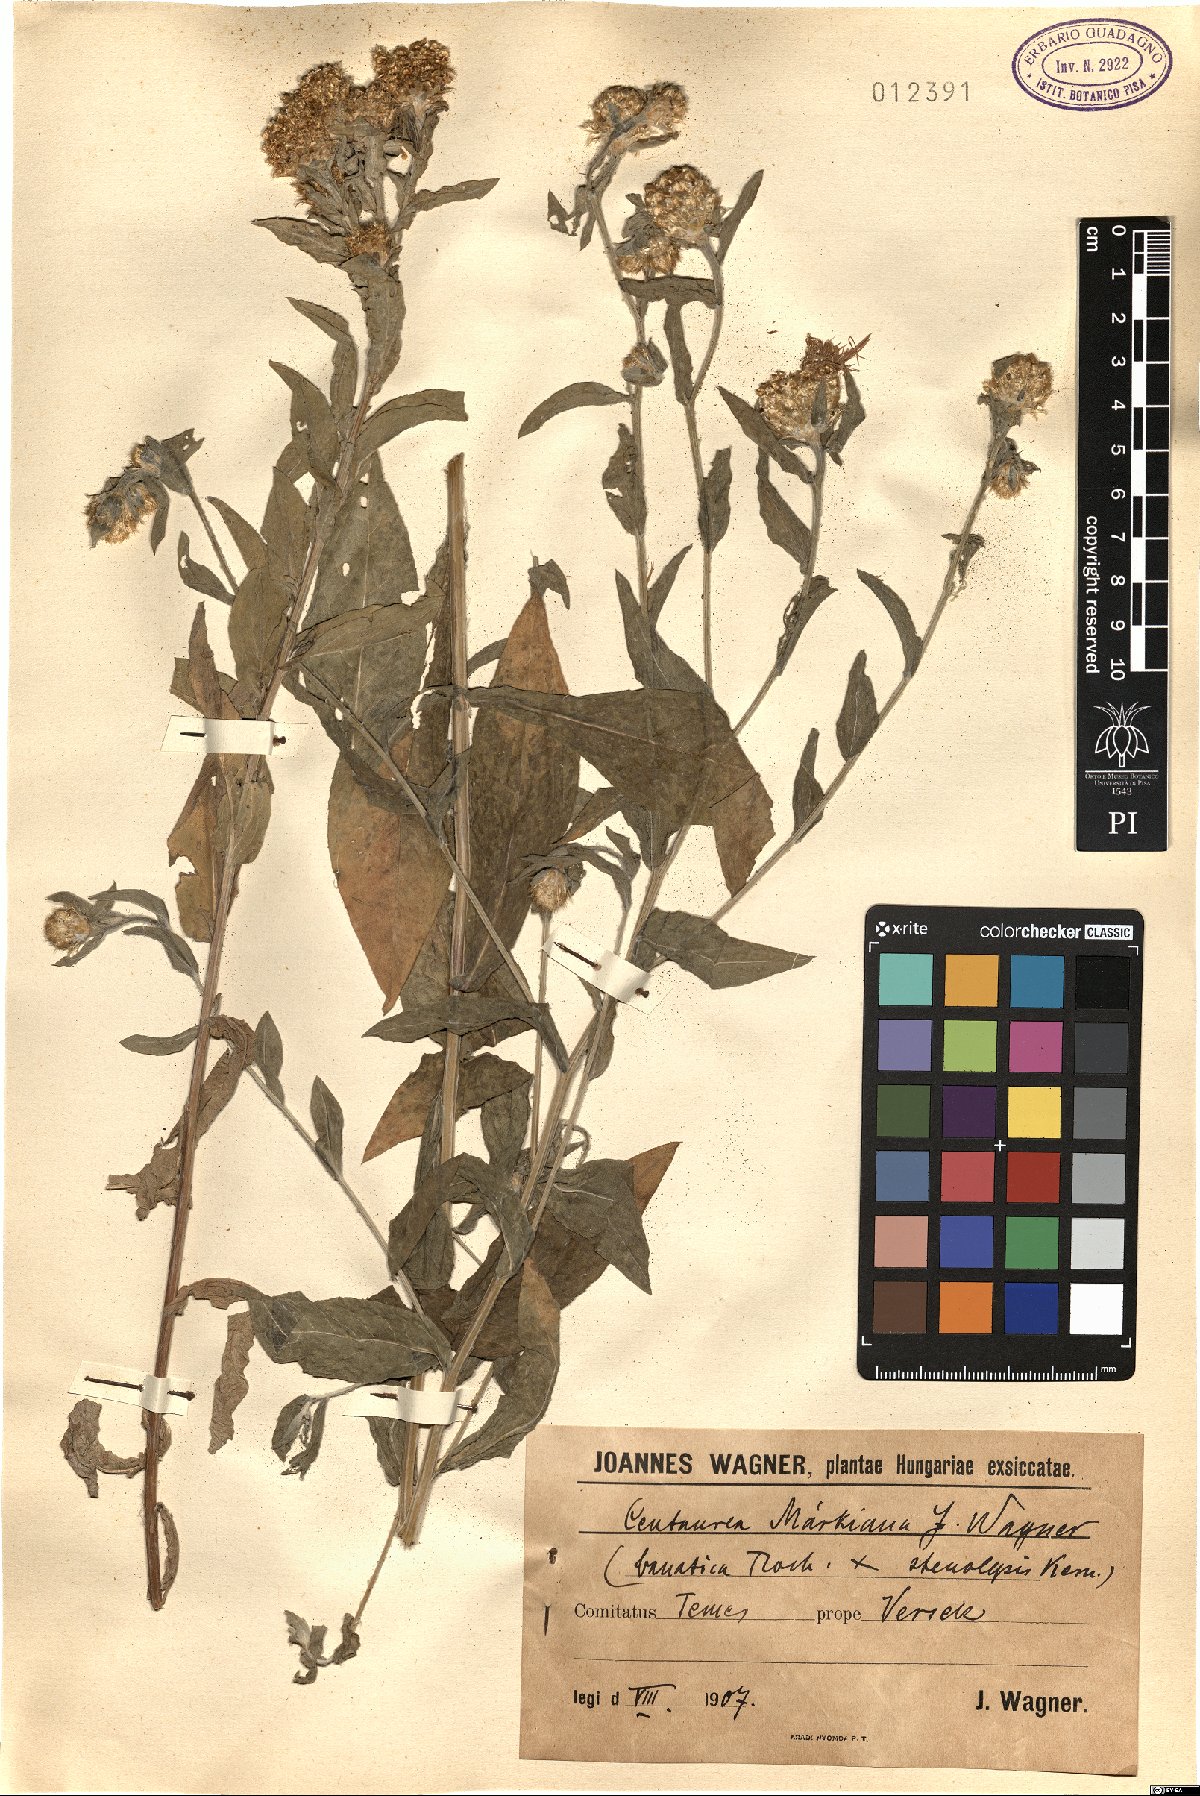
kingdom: Plantae
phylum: Tracheophyta
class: Magnoliopsida
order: Asterales
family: Asteraceae
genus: Centaurea
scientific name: Centaurea stenolepis
